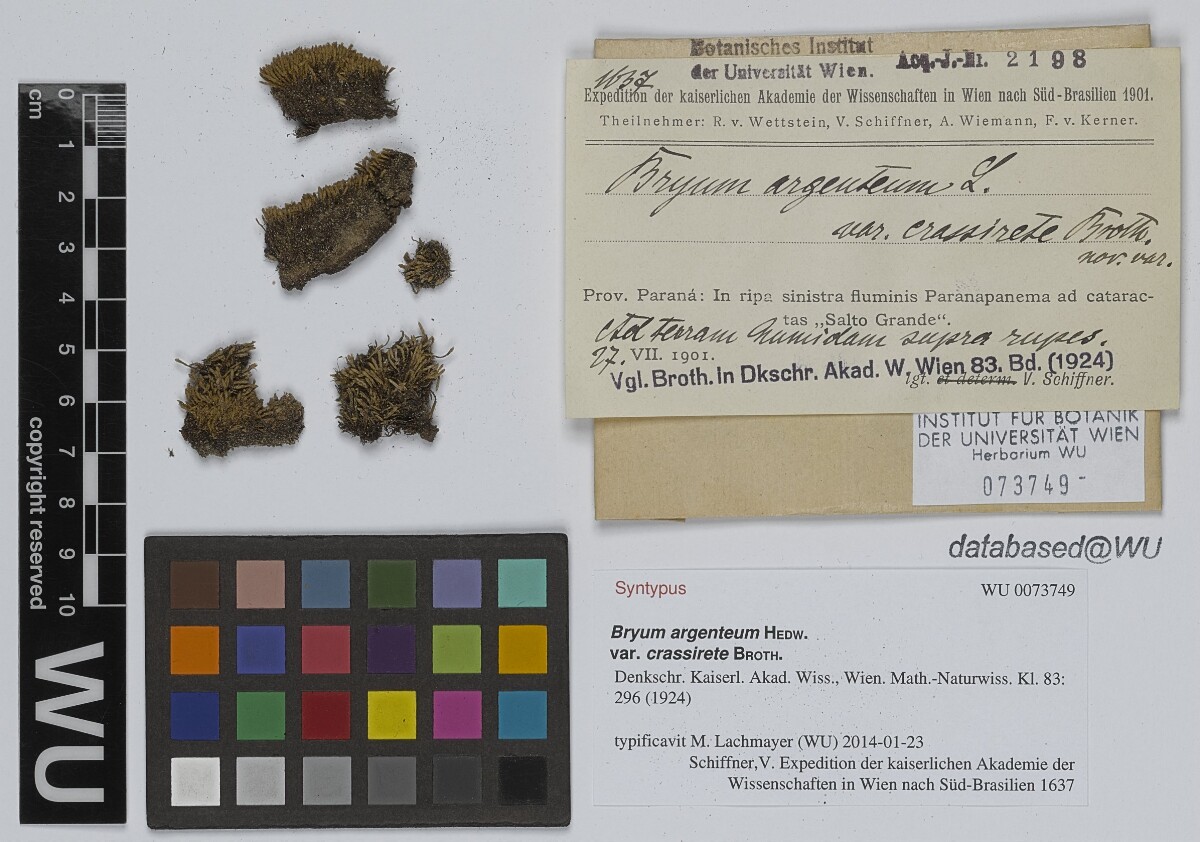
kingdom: Plantae
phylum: Bryophyta
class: Bryopsida
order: Bryales
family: Bryaceae
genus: Bryum
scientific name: Bryum argenteum
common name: Silver-moss
